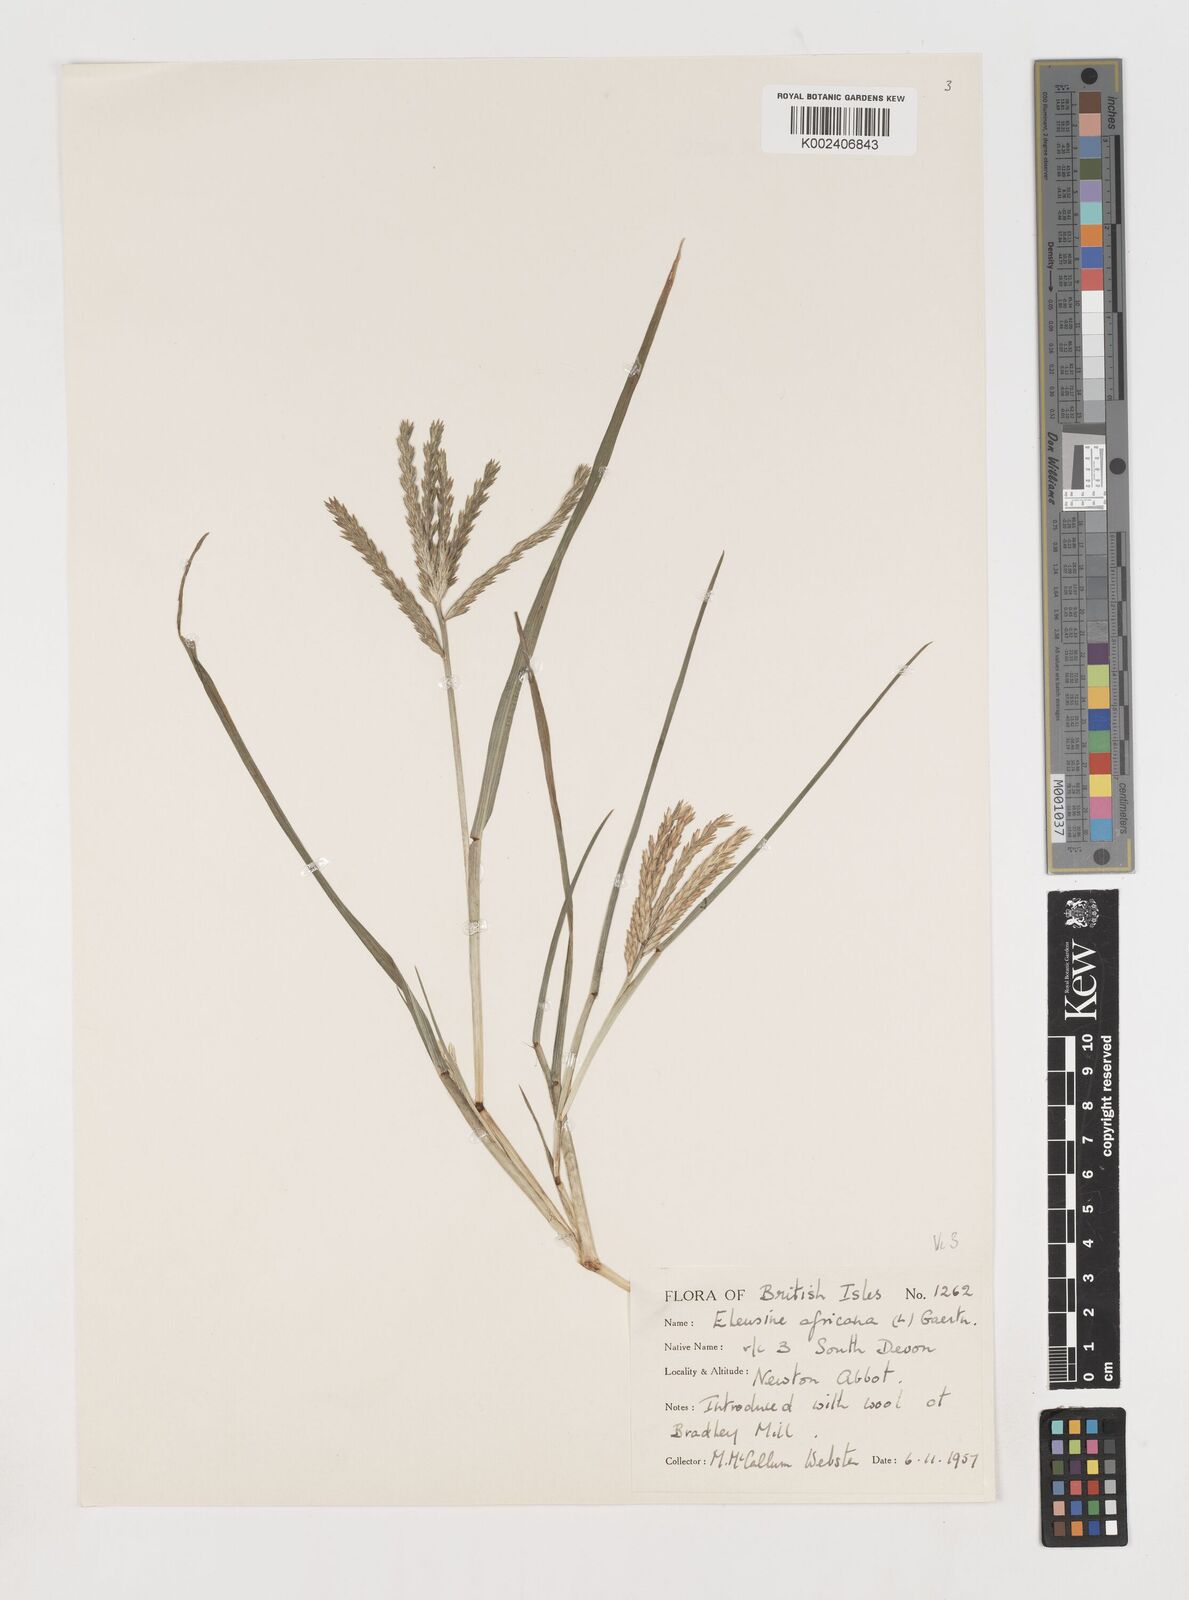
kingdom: Plantae
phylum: Tracheophyta
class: Liliopsida
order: Poales
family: Poaceae
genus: Eleusine
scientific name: Eleusine africana
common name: Wild african finger millet
